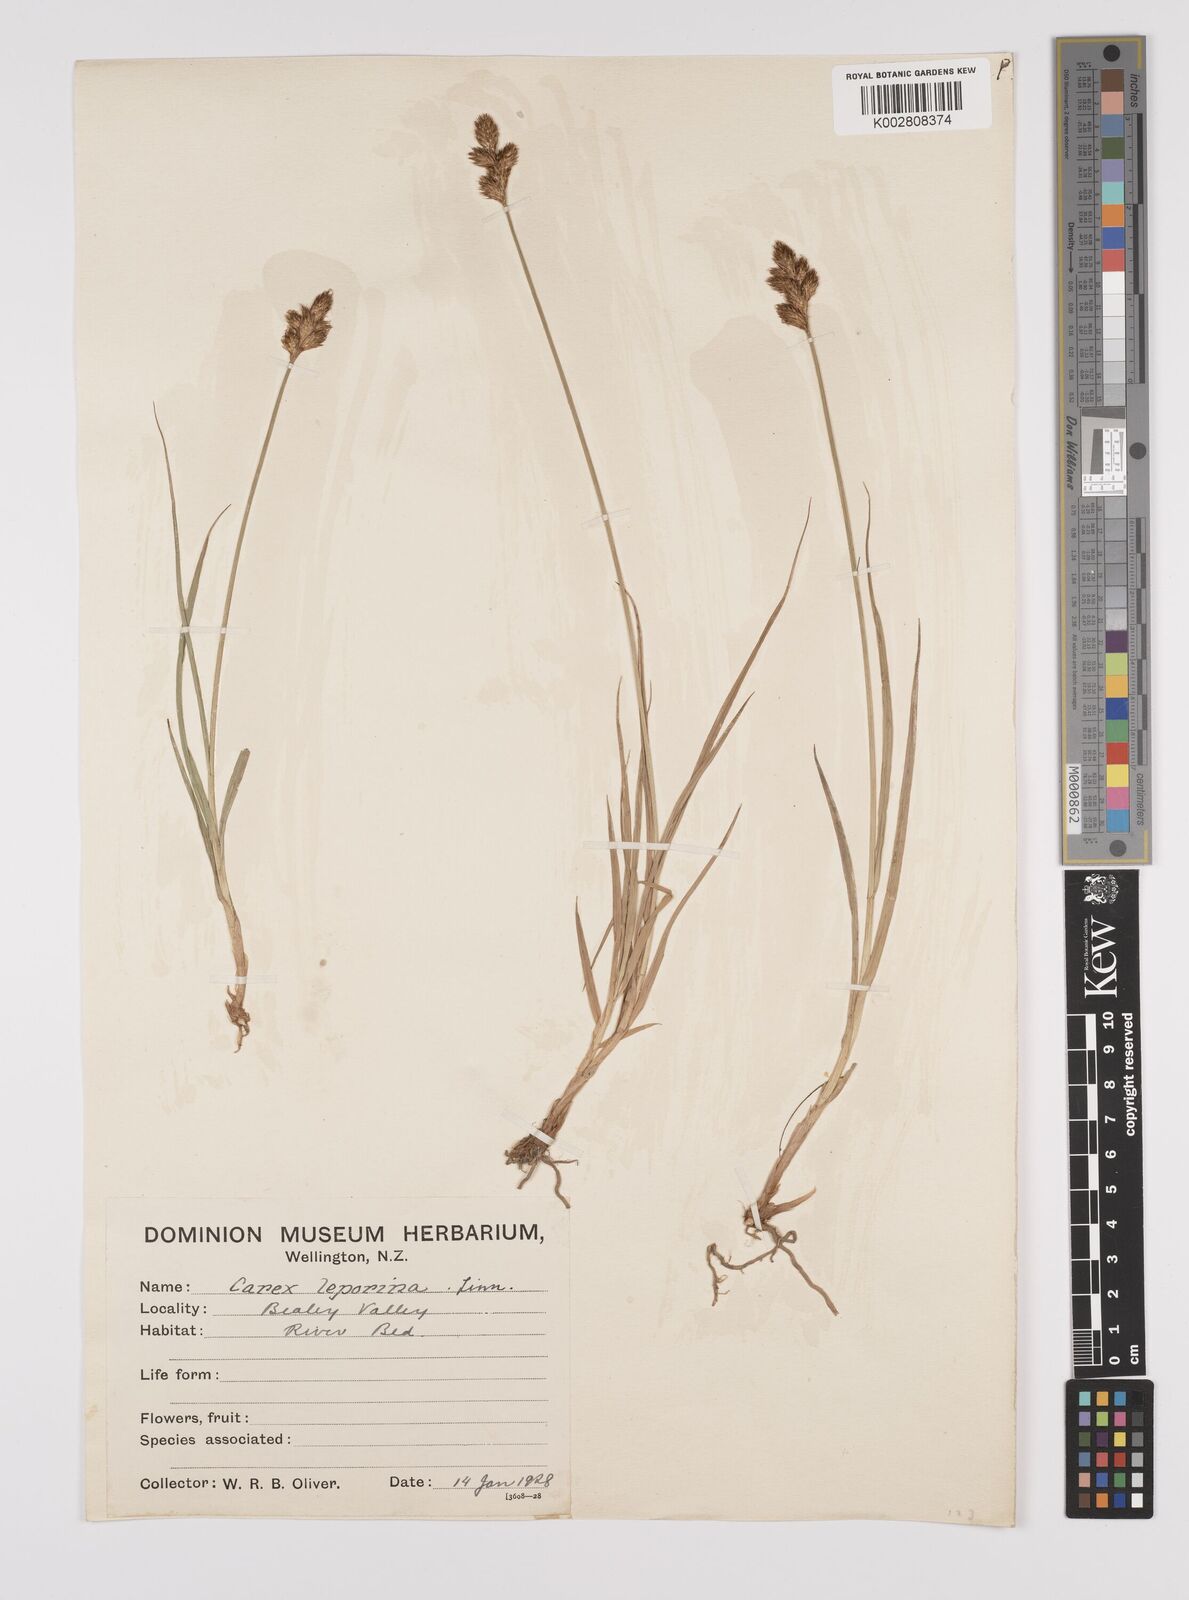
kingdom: Plantae
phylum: Tracheophyta
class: Liliopsida
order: Poales
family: Cyperaceae
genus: Carex
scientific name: Carex leporina
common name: Oval sedge
